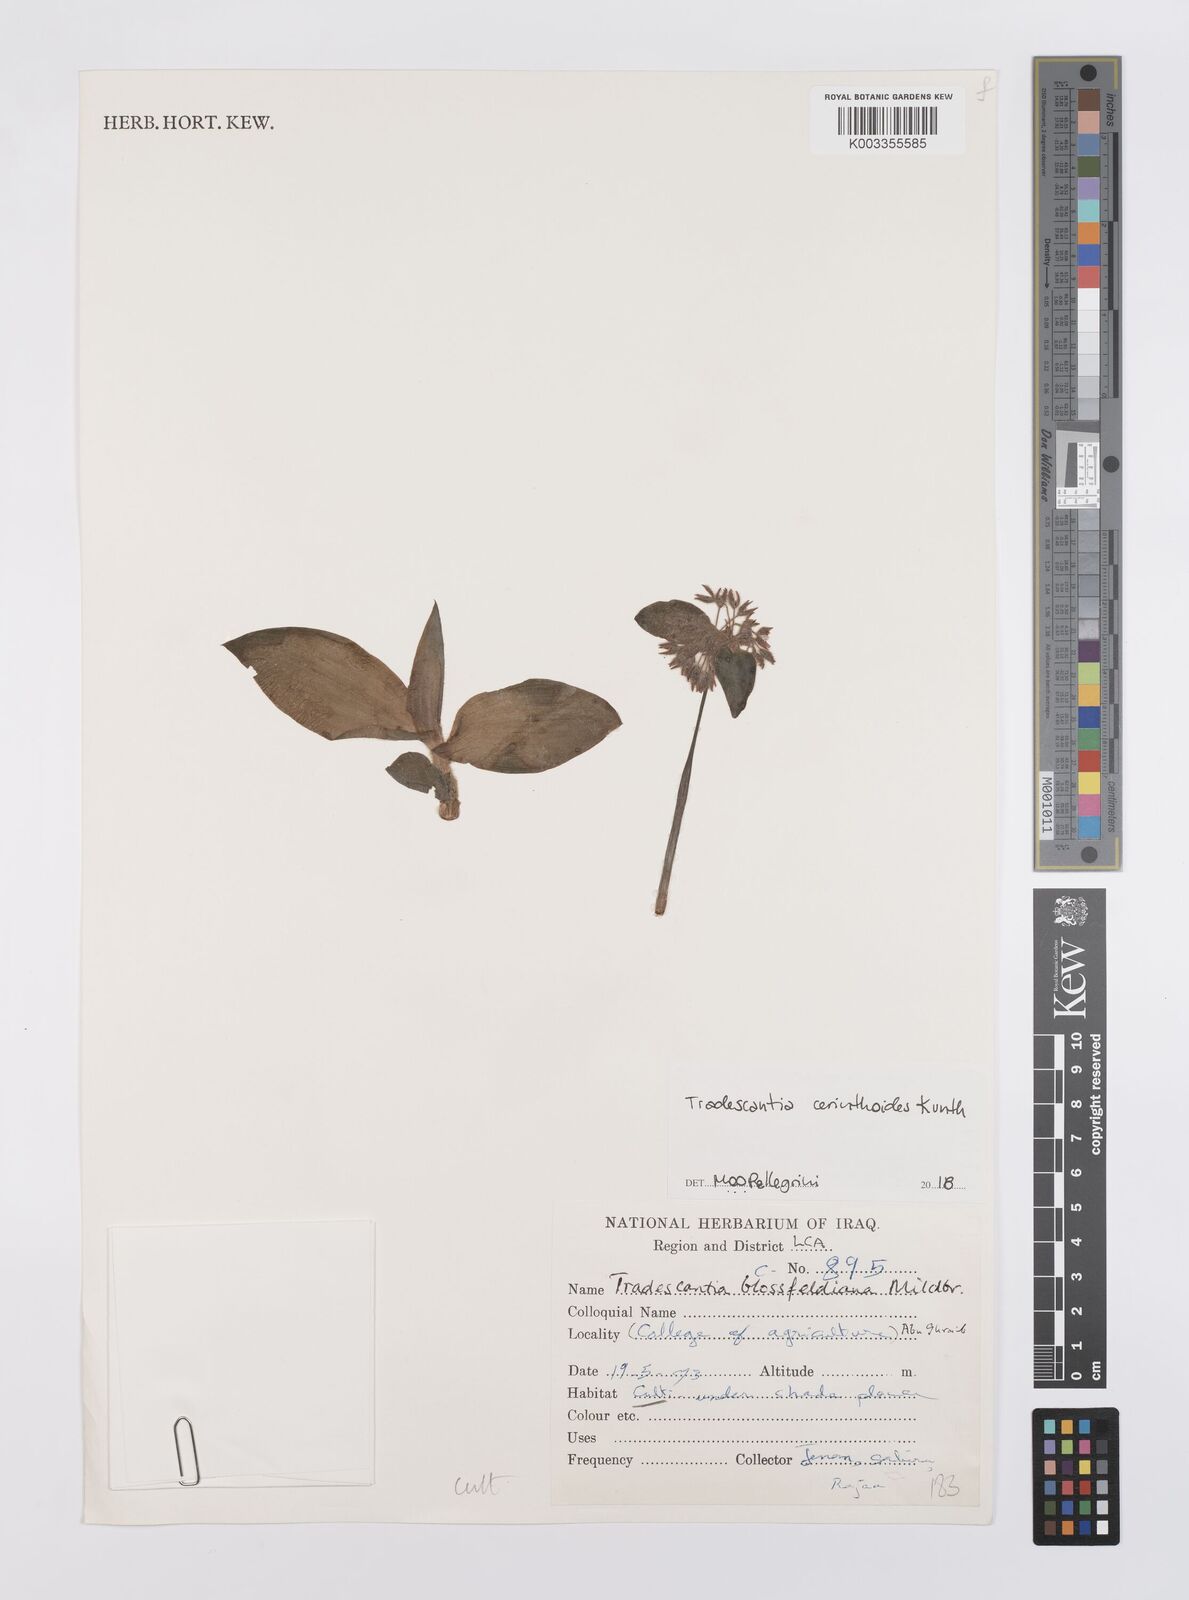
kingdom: Plantae
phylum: Tracheophyta
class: Liliopsida
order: Commelinales
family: Commelinaceae
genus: Tradescantia
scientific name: Tradescantia cerinthoides
